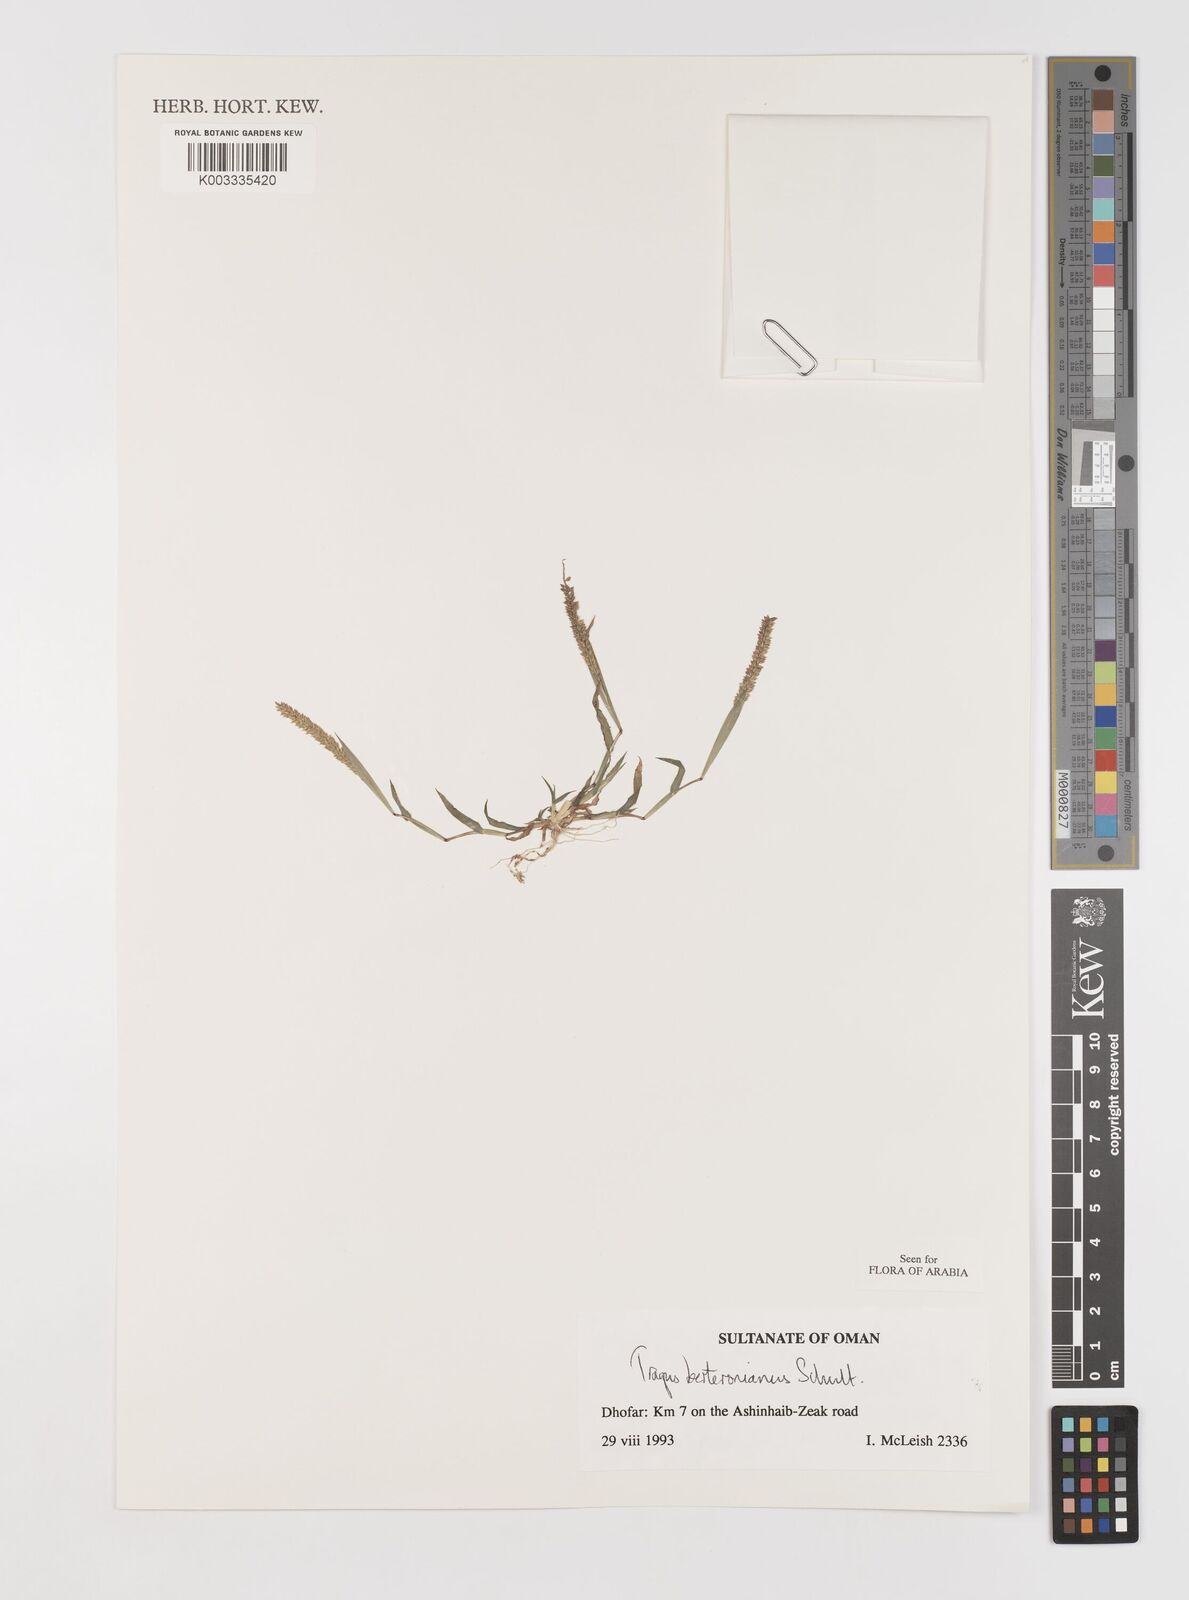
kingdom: Plantae
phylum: Tracheophyta
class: Liliopsida
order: Poales
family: Poaceae
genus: Tragus
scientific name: Tragus berteronianus
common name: African bur-grass
